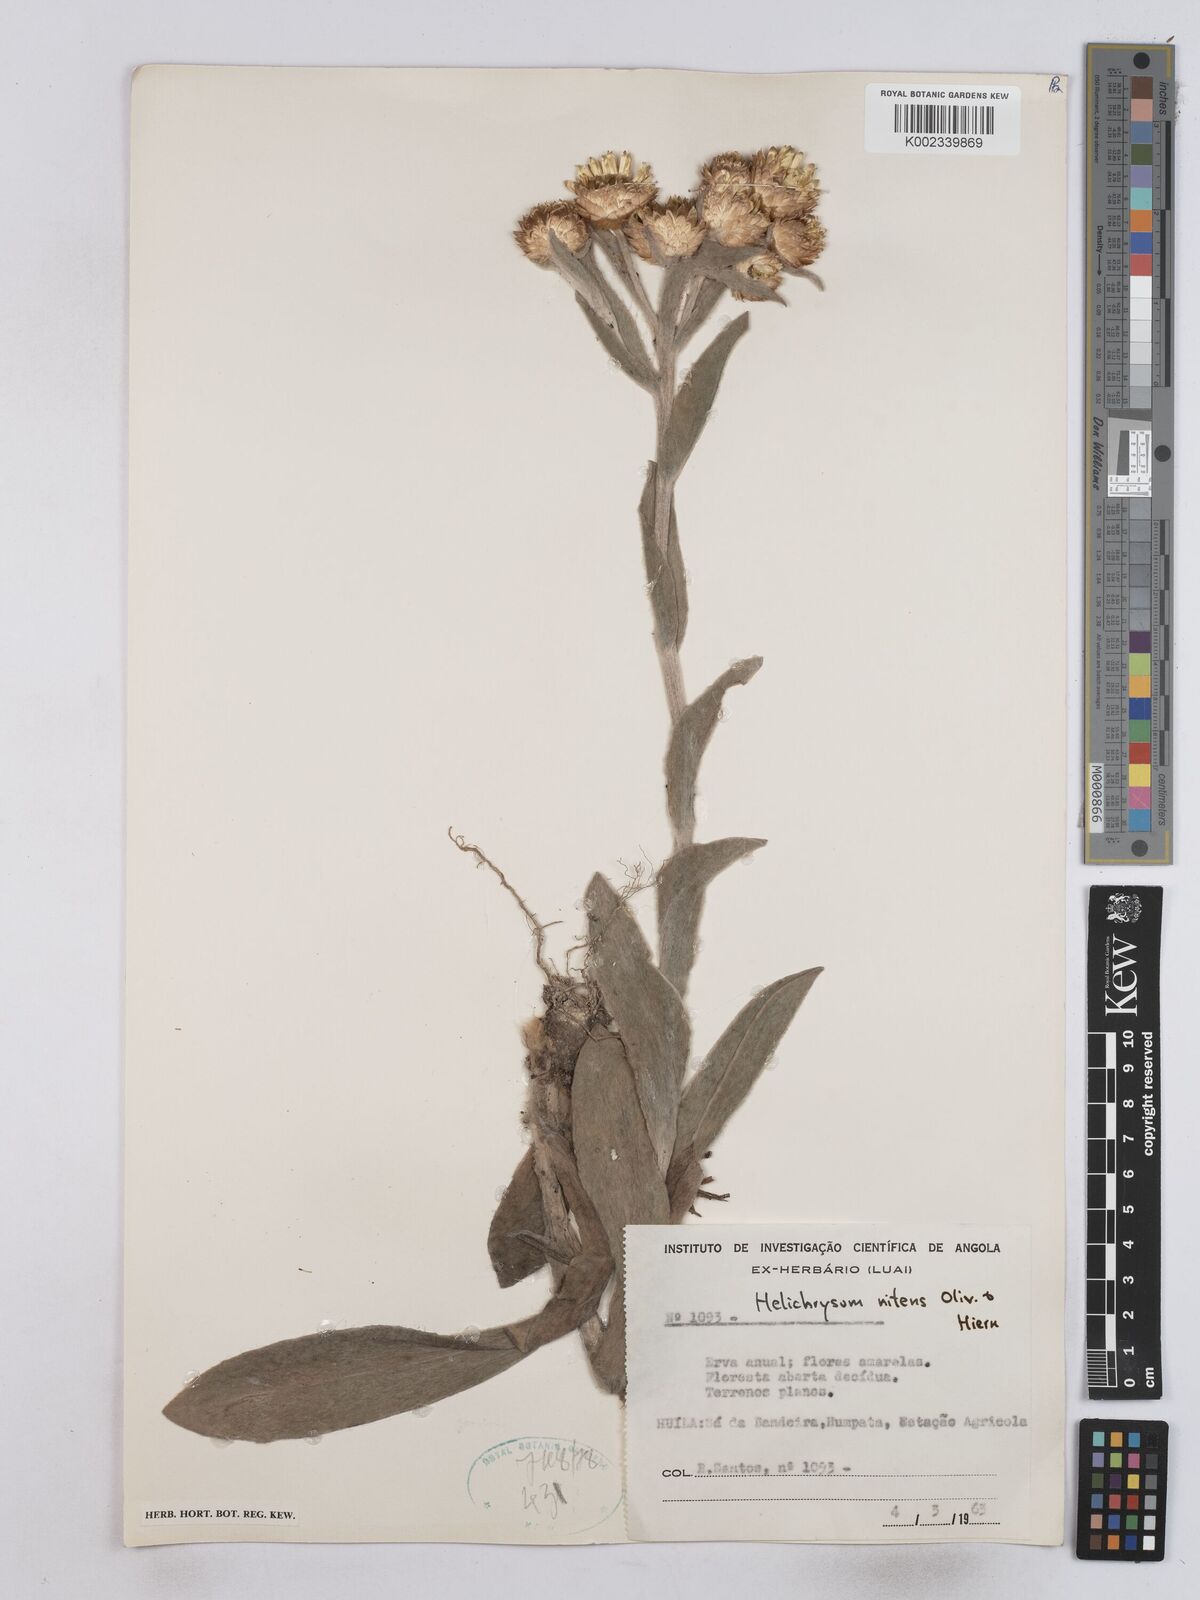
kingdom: Plantae
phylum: Tracheophyta
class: Magnoliopsida
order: Asterales
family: Asteraceae
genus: Helichrysum
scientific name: Helichrysum nitens
